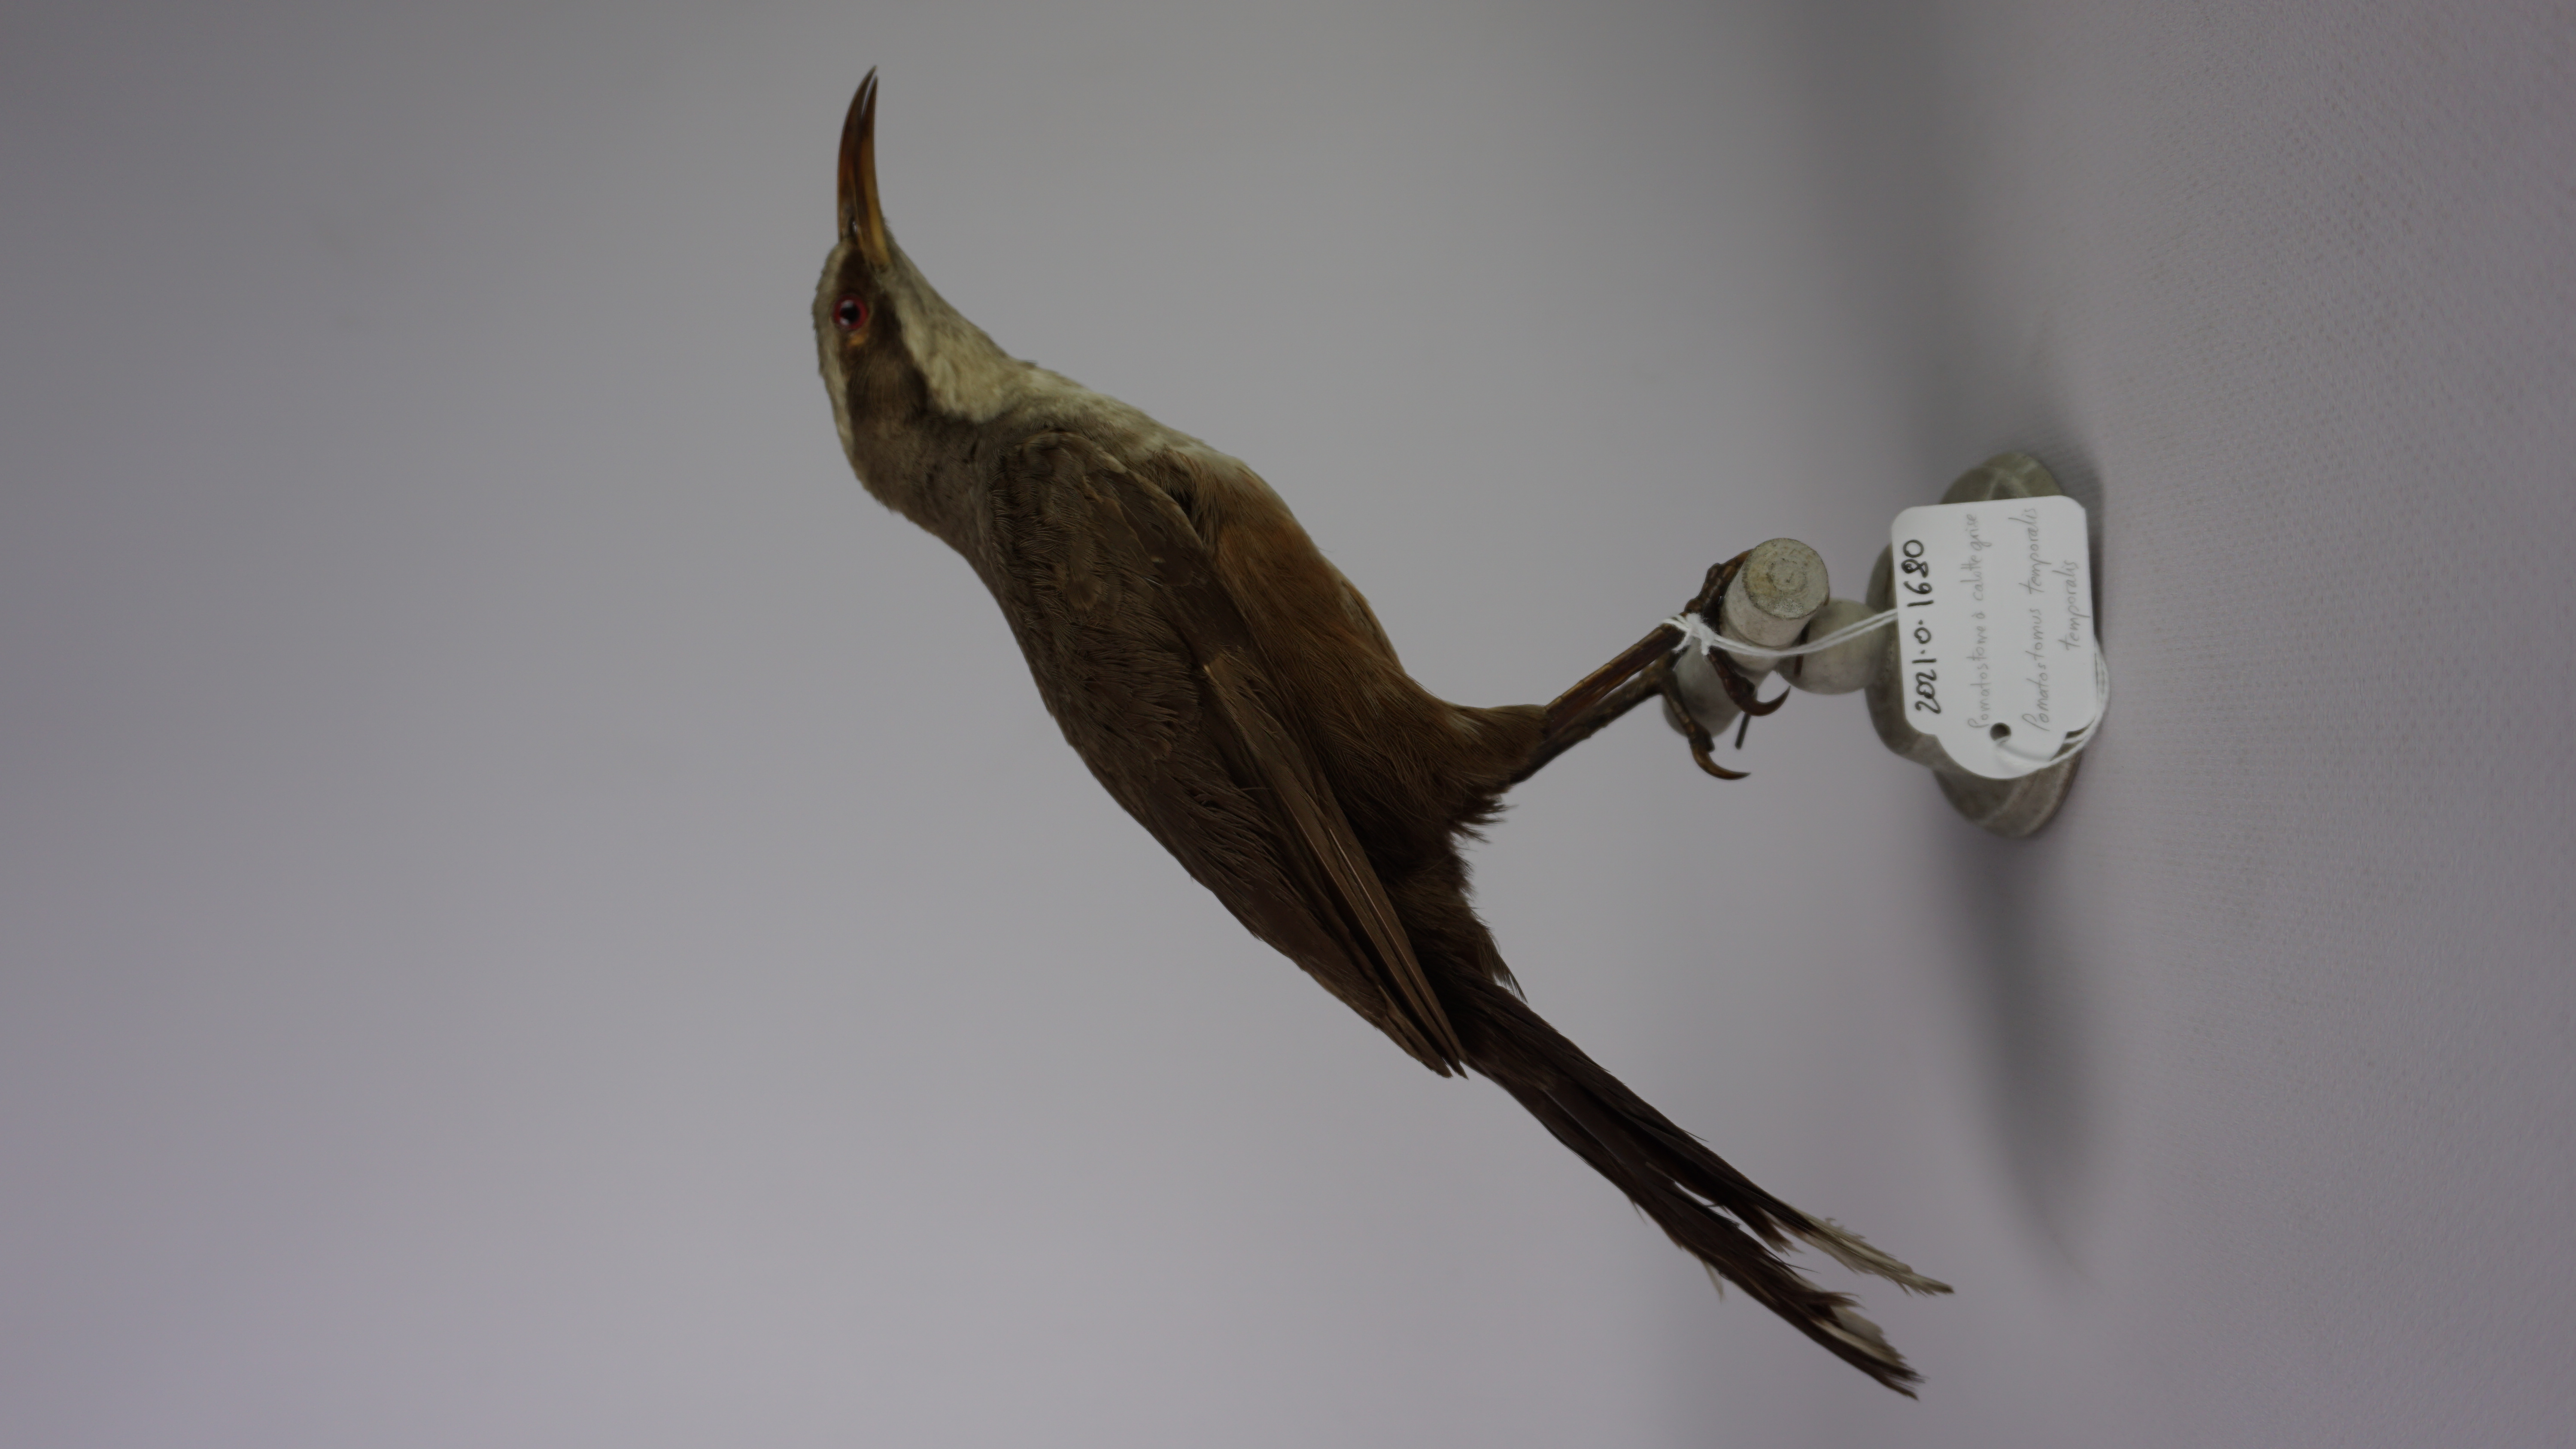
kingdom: Animalia
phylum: Chordata
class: Aves
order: Passeriformes
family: Pomatostomidae
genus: Pomatostomus
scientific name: Pomatostomus temporalis
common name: Grey-crowned babbler
